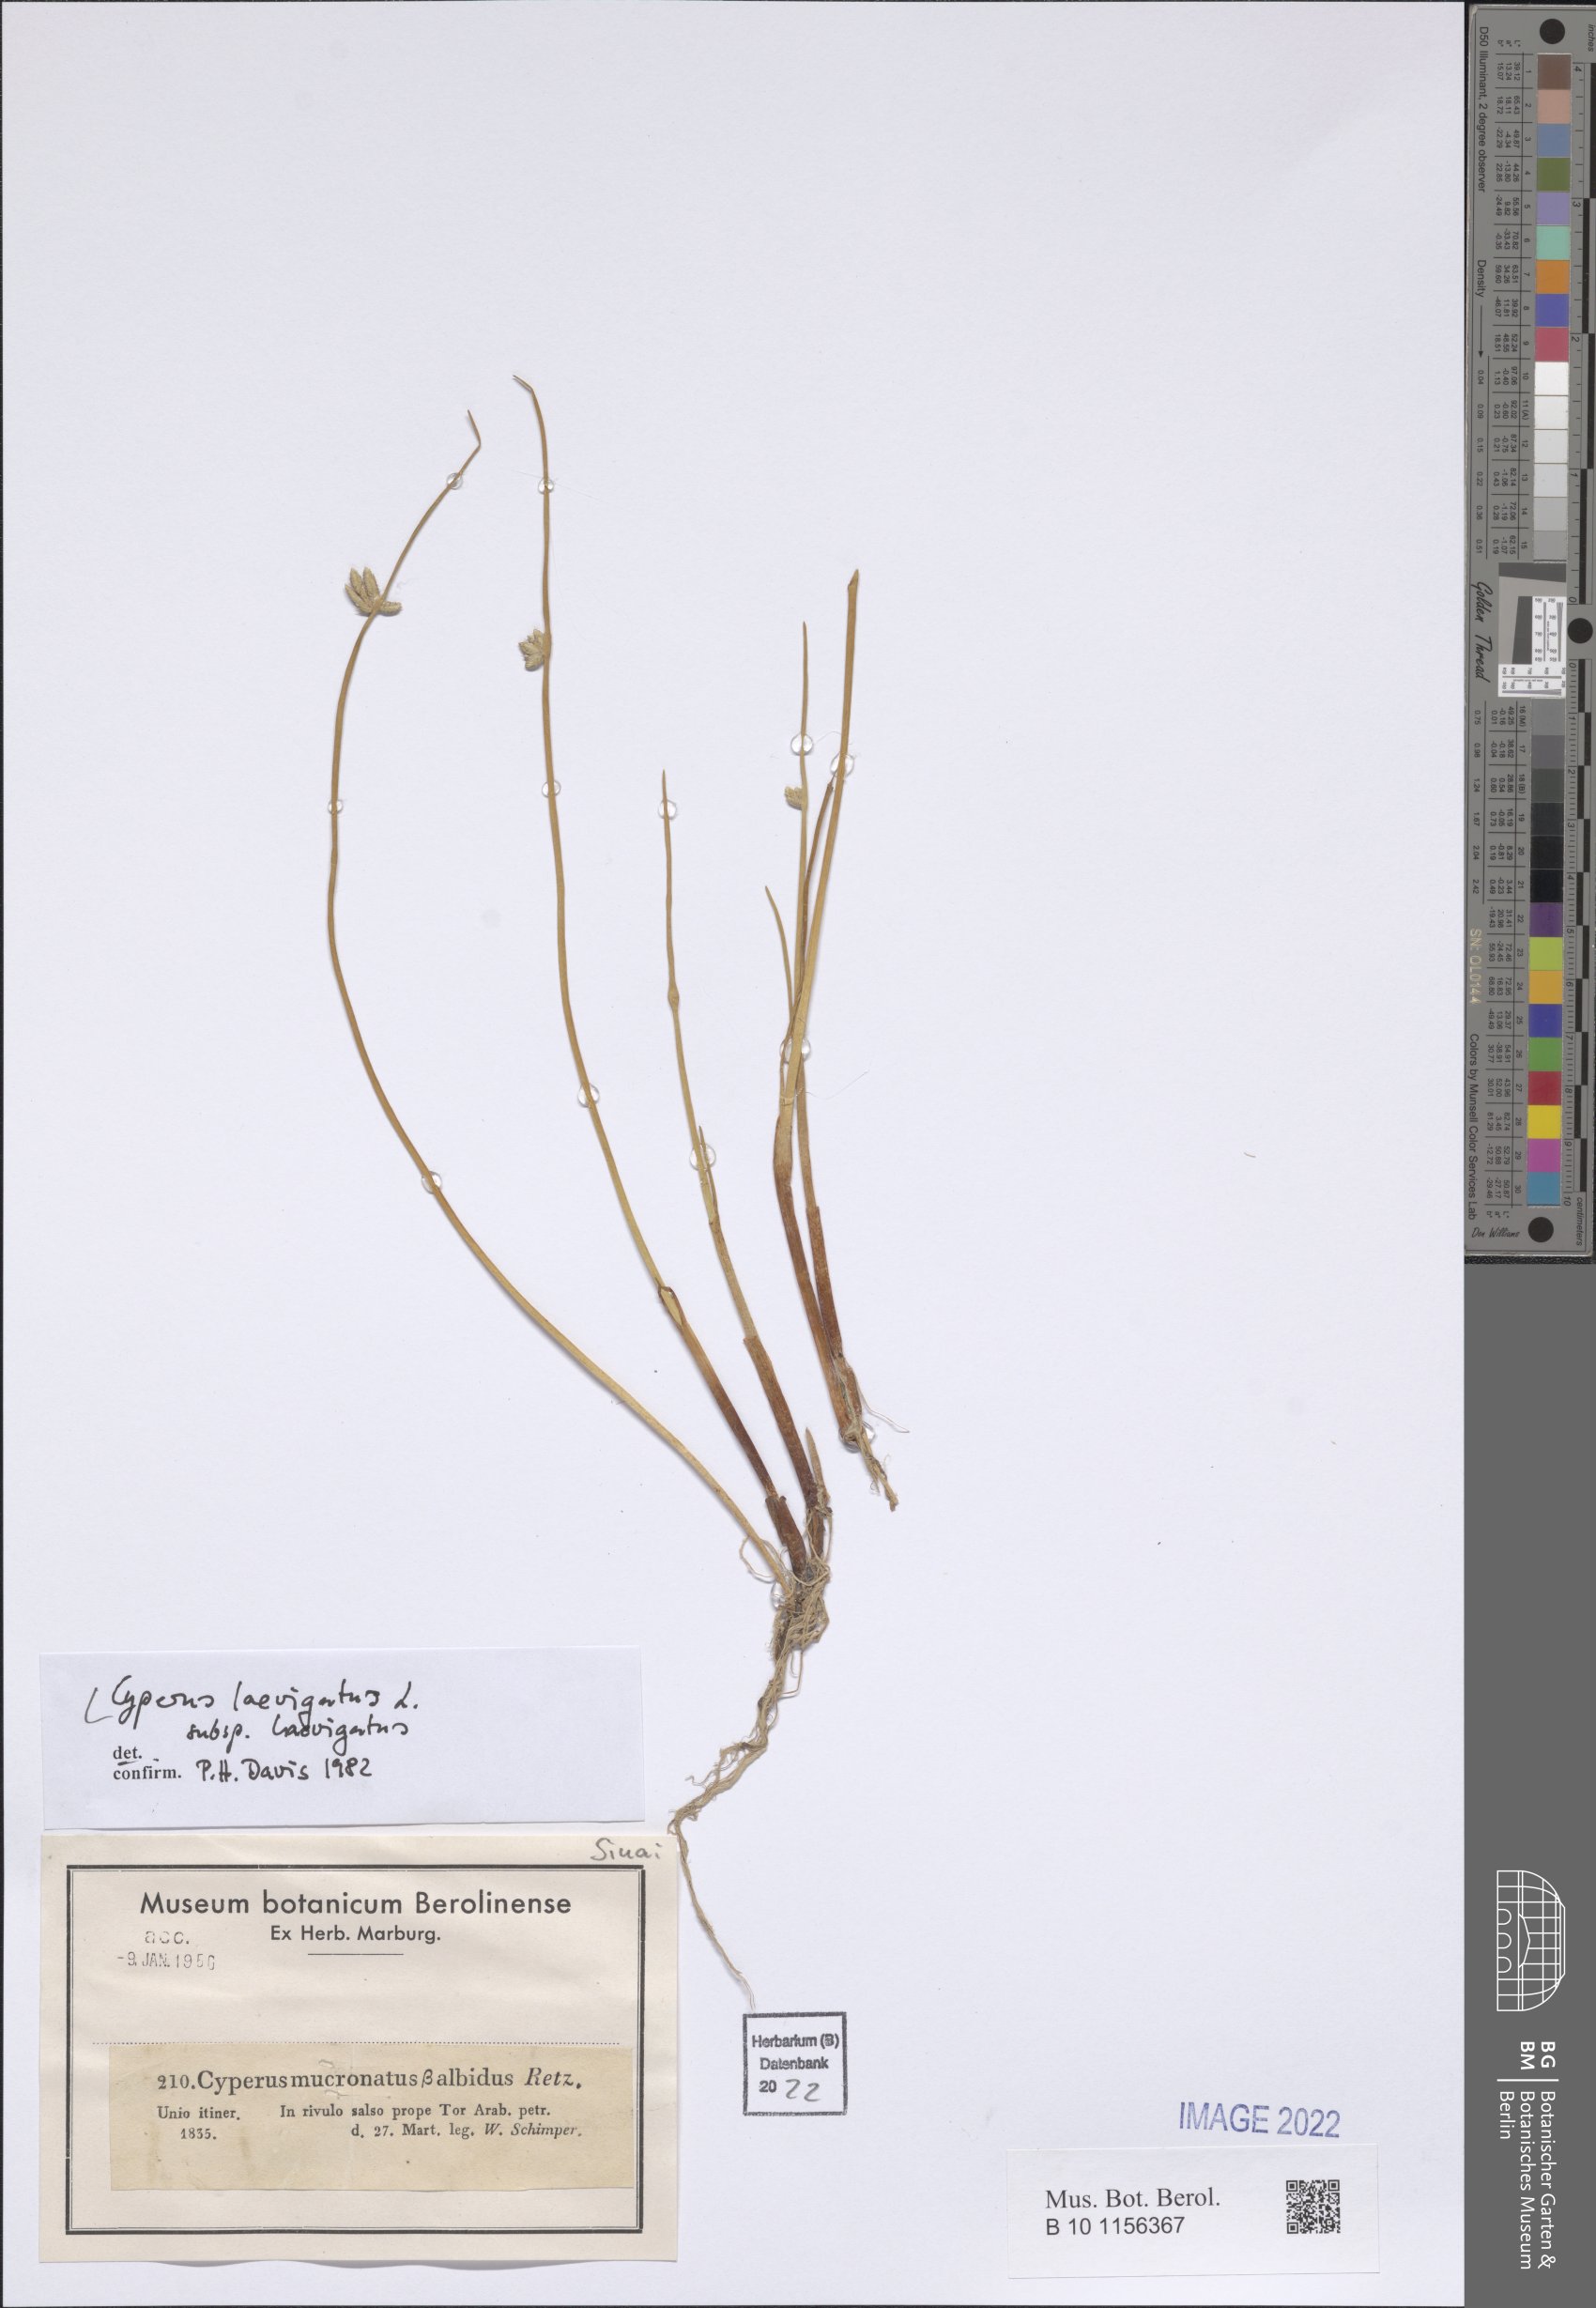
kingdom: Plantae
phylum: Tracheophyta
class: Liliopsida
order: Poales
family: Cyperaceae
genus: Cyperus
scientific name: Cyperus laevigatus
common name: Smooth flat sedge
